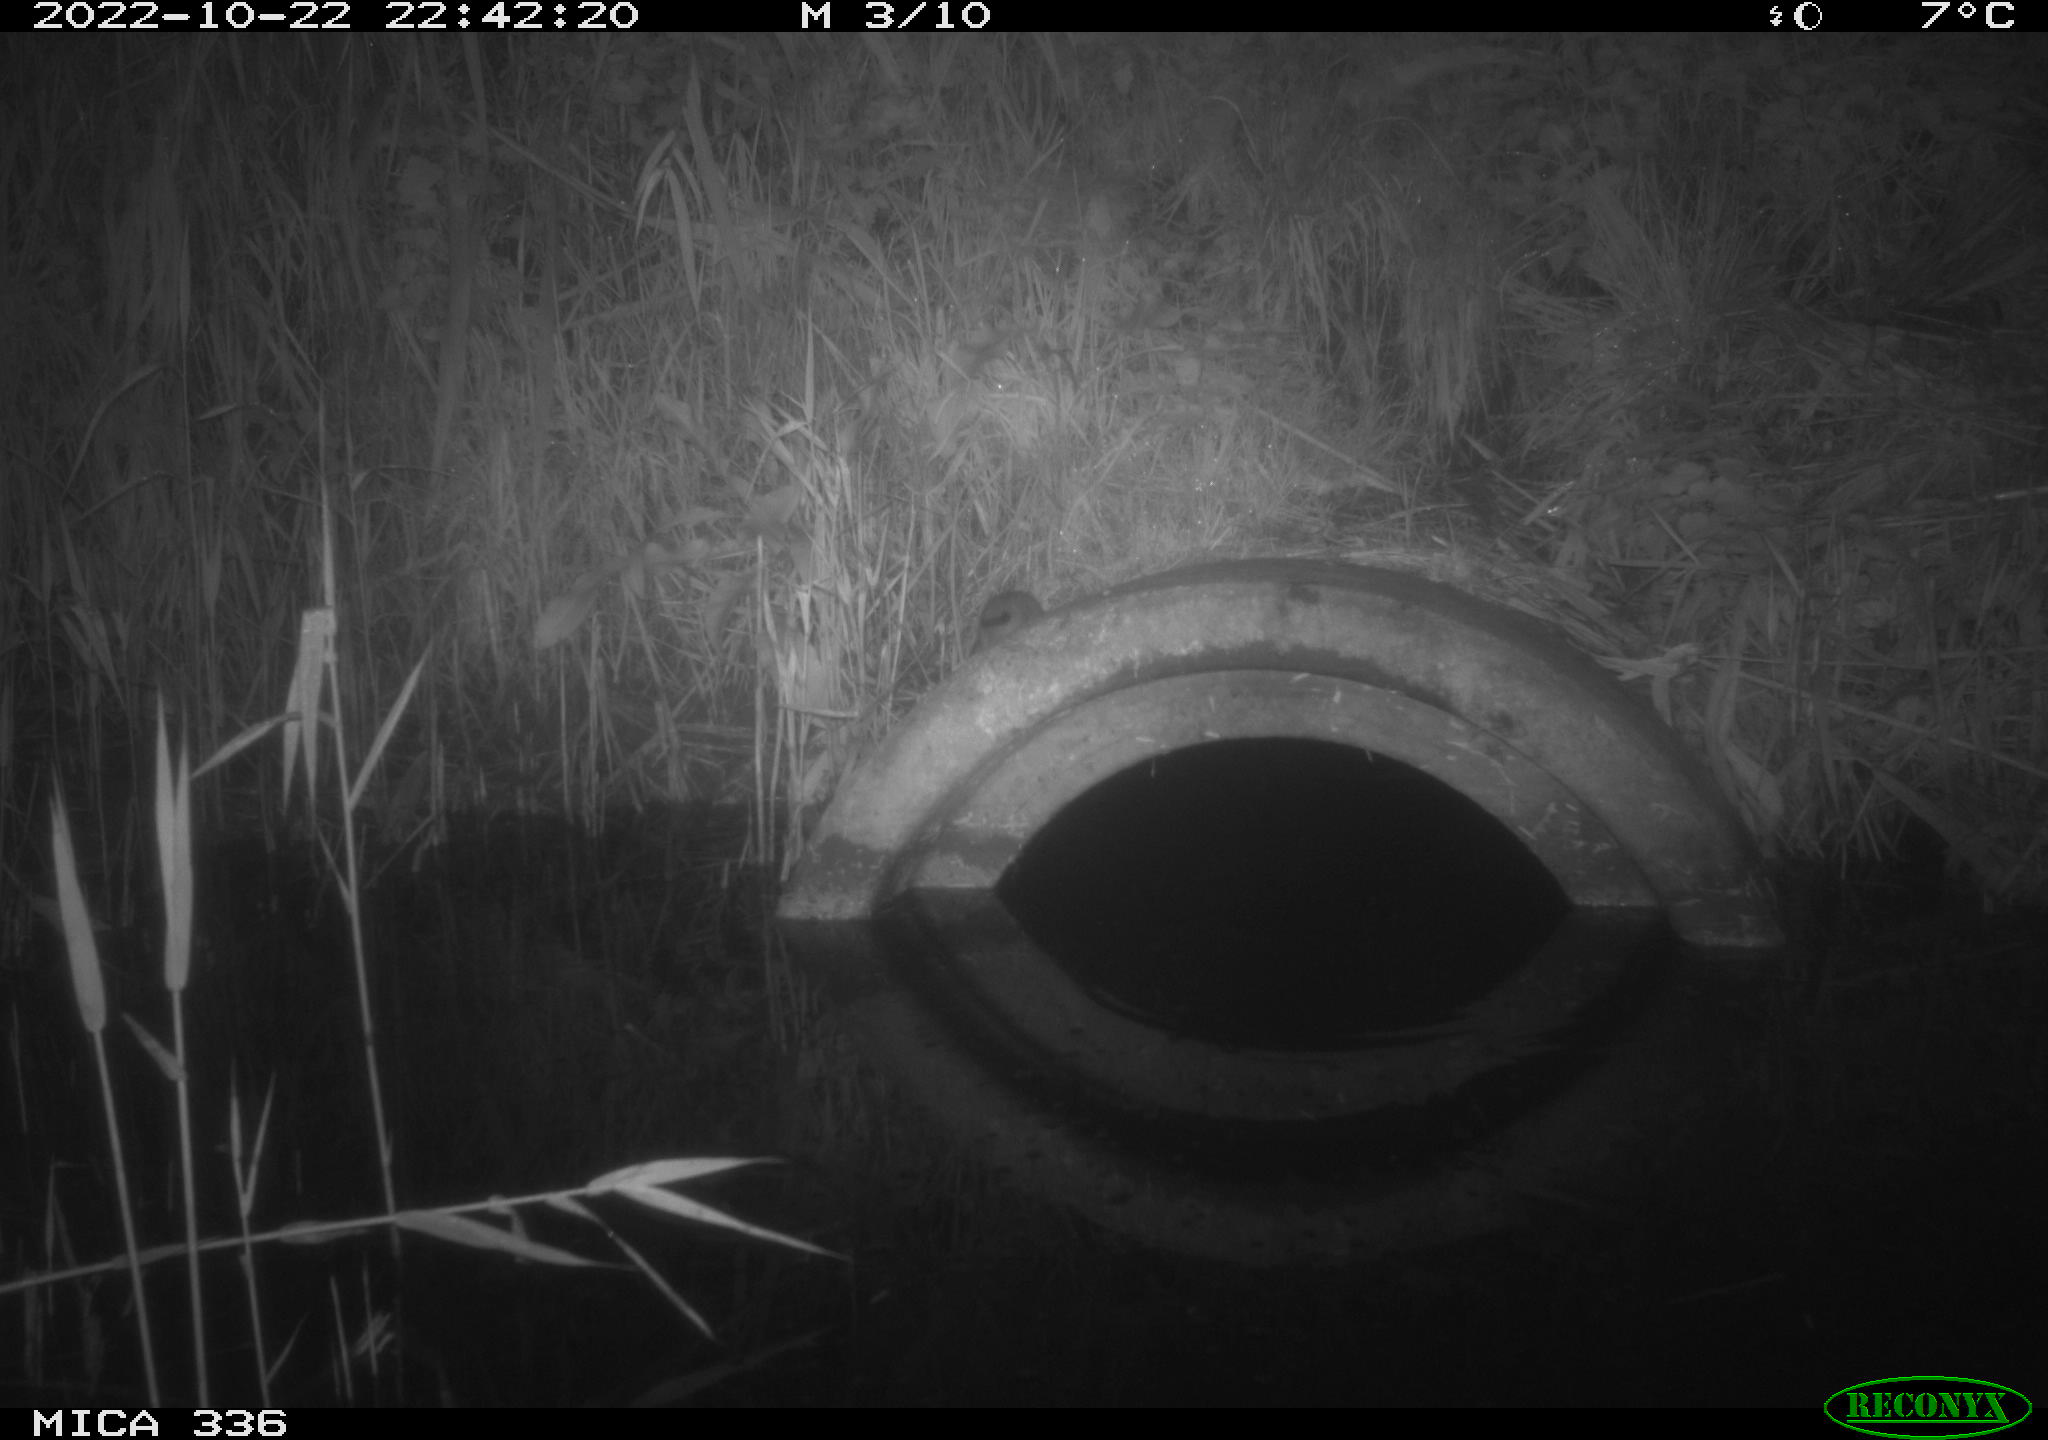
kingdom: Animalia
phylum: Chordata
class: Mammalia
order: Rodentia
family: Muridae
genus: Rattus
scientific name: Rattus norvegicus
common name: Brown rat
